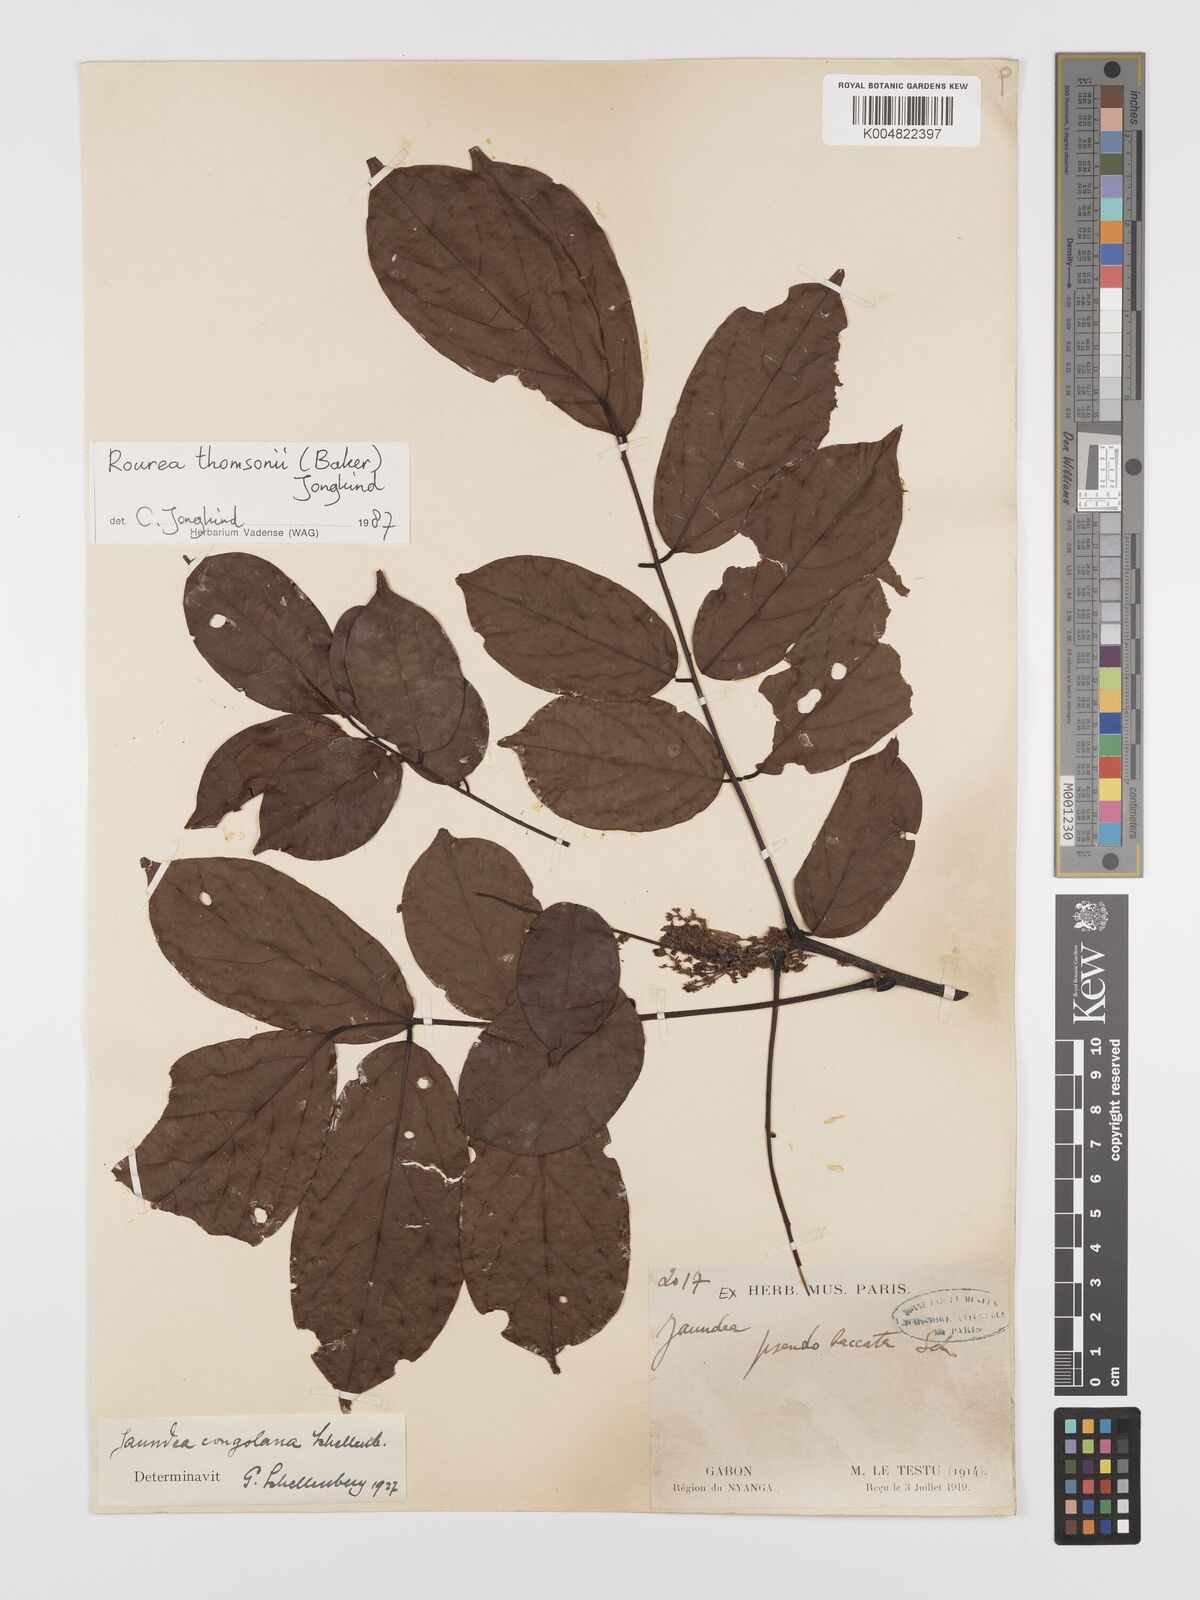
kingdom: Plantae
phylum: Tracheophyta
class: Magnoliopsida
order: Oxalidales
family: Connaraceae
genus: Rourea
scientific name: Rourea pubescens
